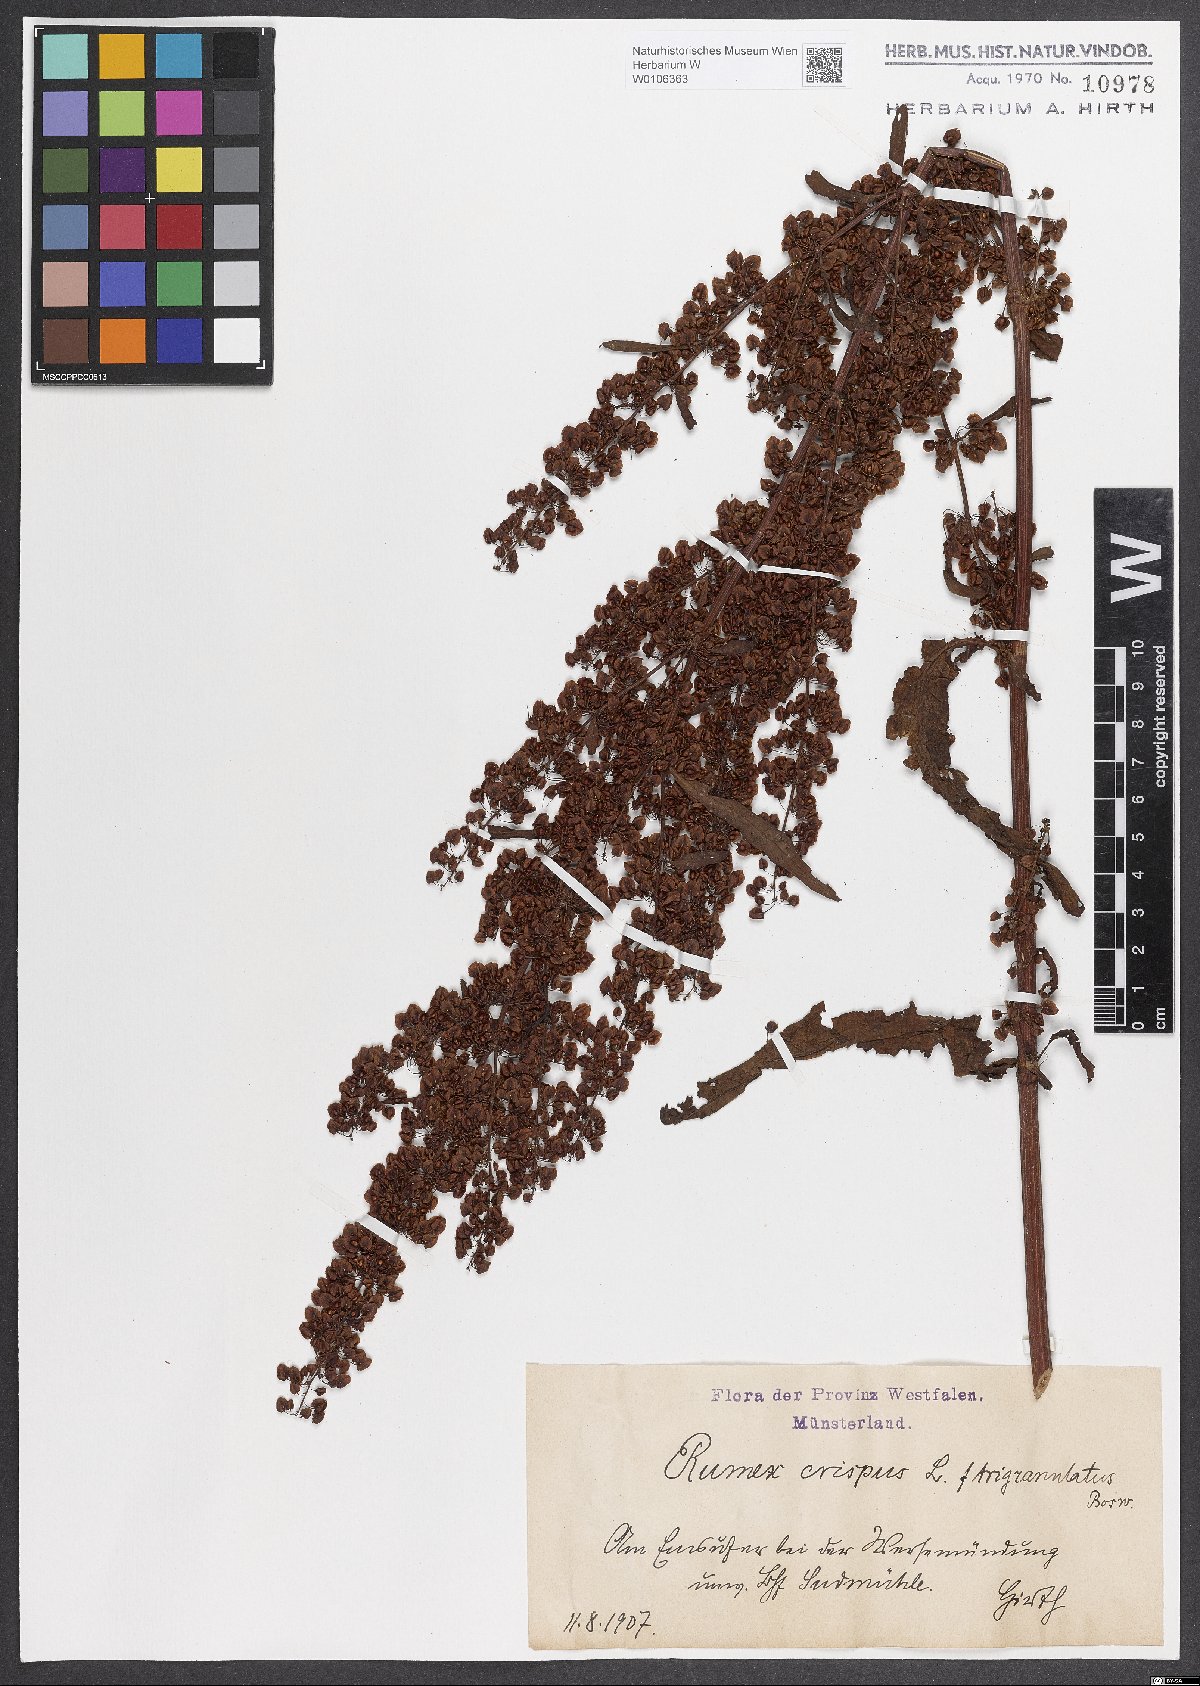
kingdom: Plantae
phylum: Tracheophyta
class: Magnoliopsida
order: Caryophyllales
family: Polygonaceae
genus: Rumex
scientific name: Rumex crispus
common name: Curled dock
